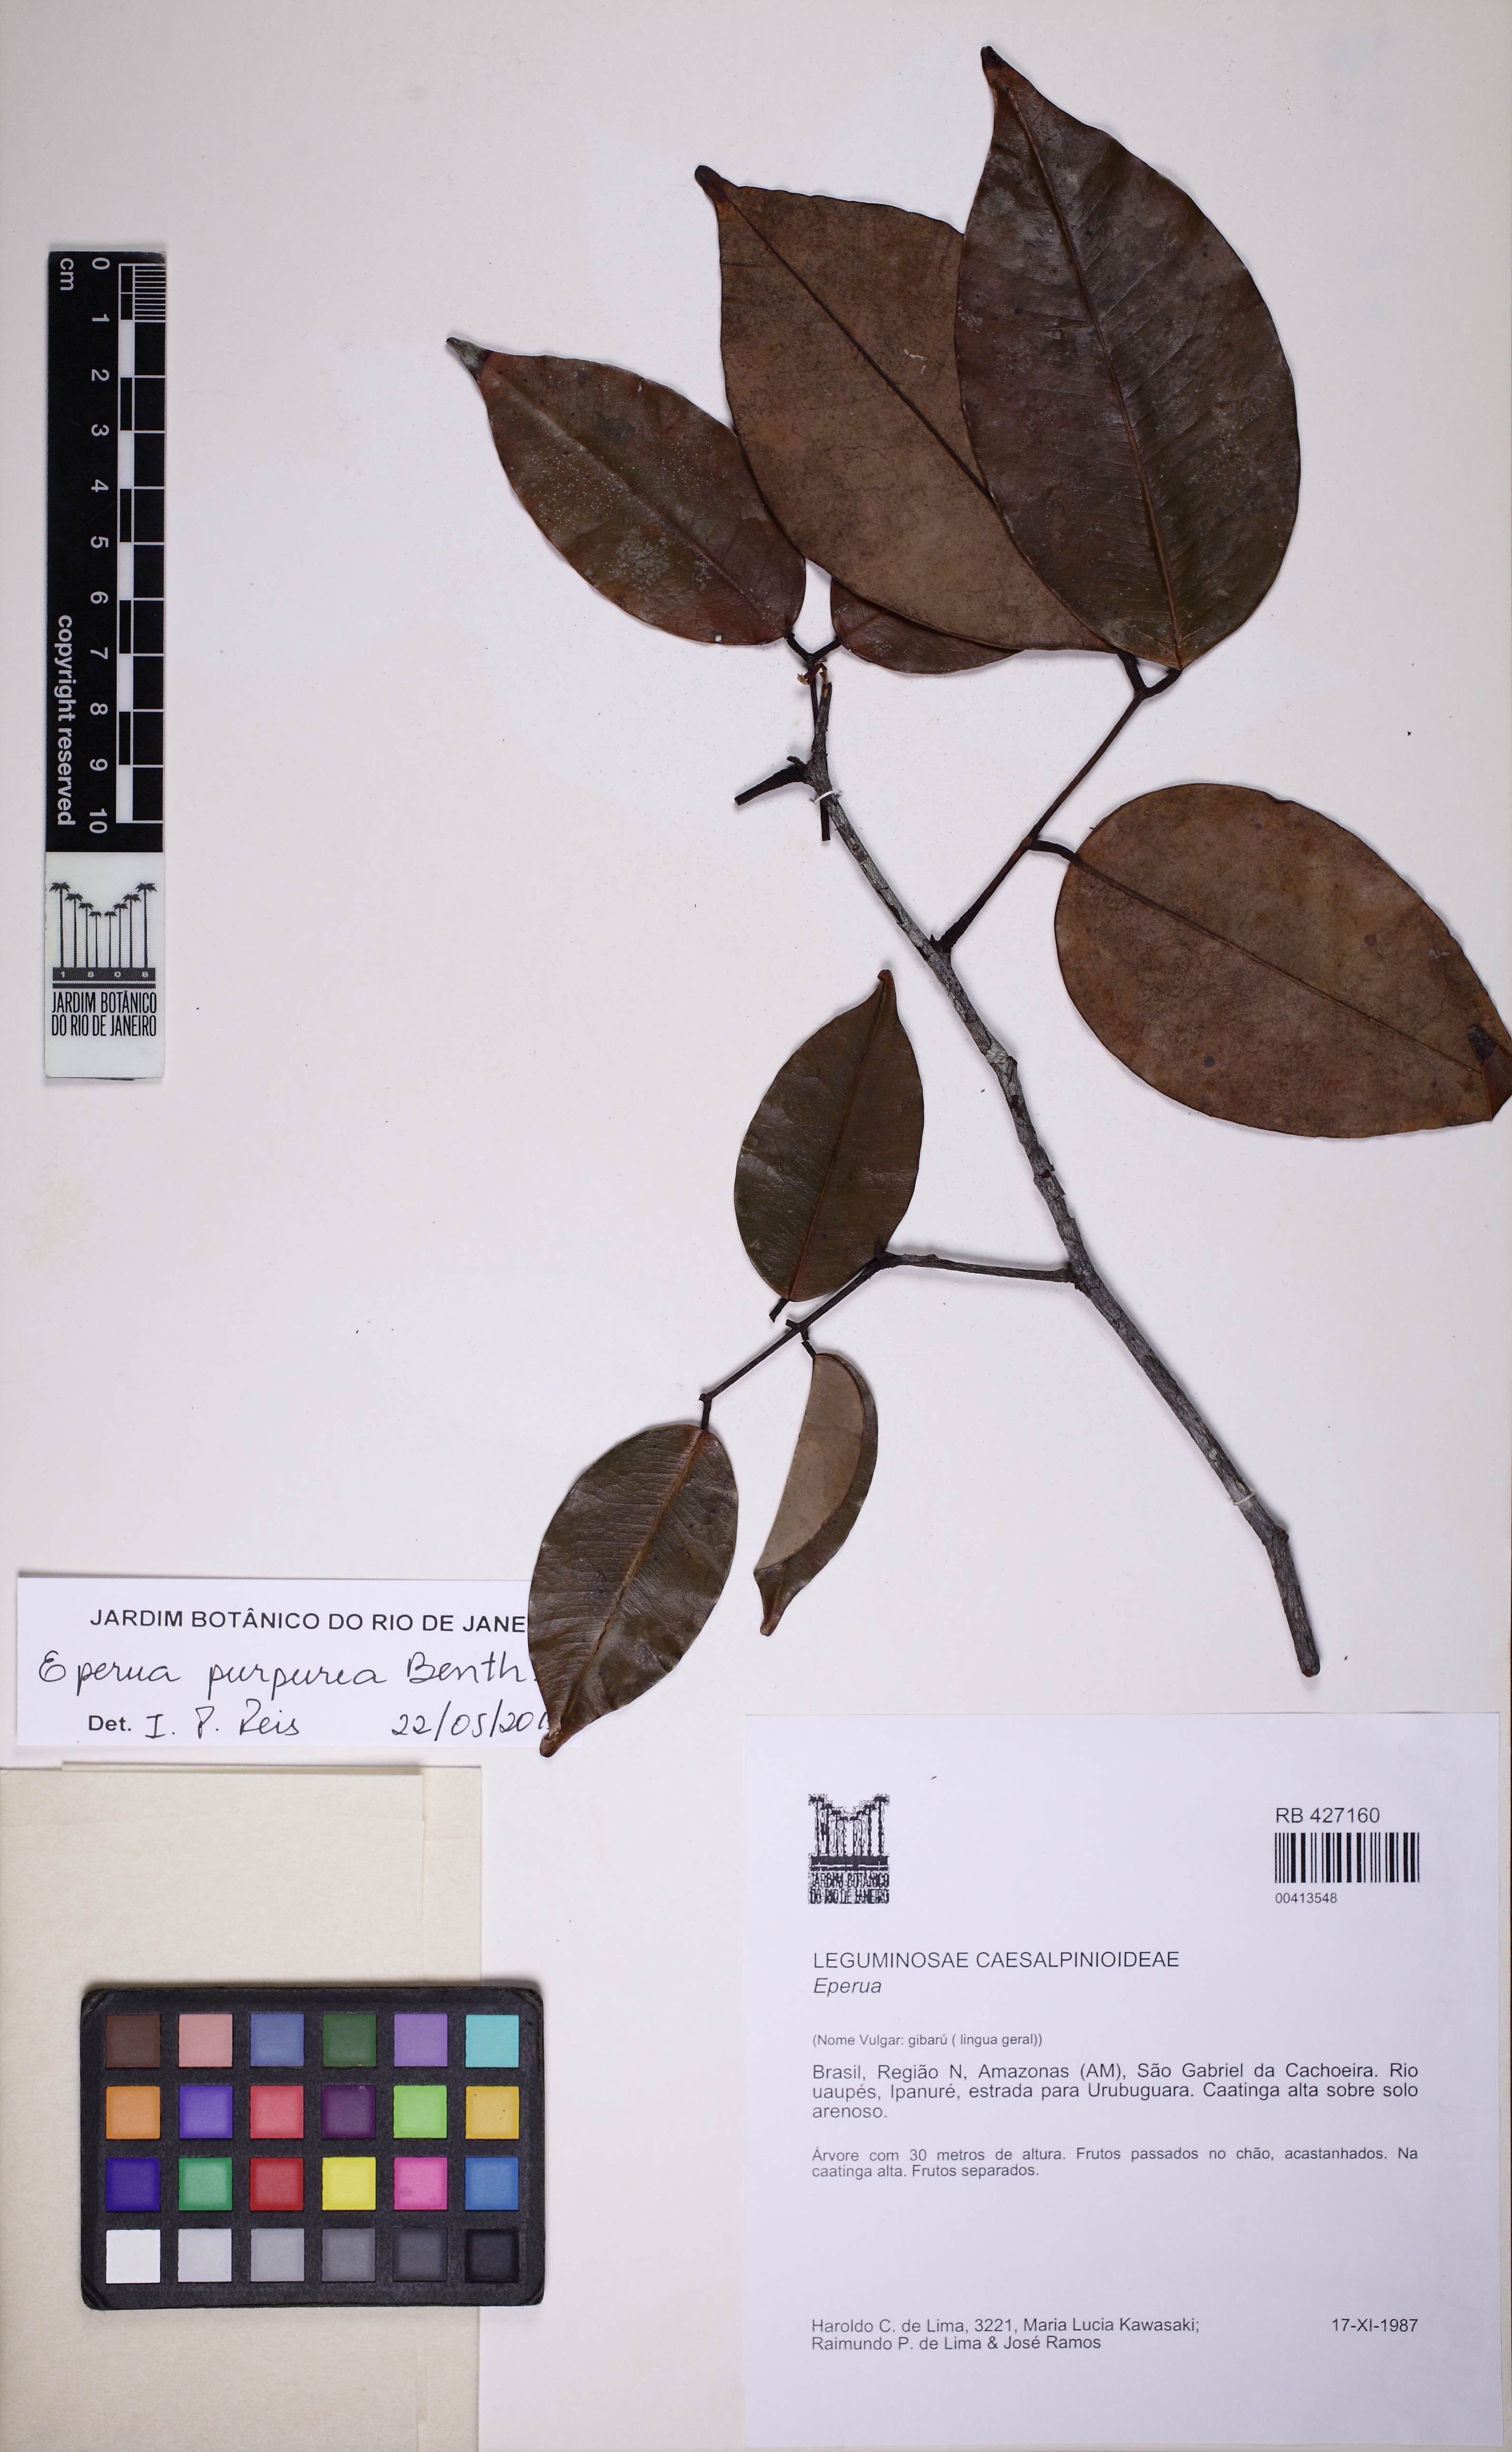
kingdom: Plantae
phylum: Tracheophyta
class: Magnoliopsida
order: Fabales
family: Fabaceae
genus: Eperua
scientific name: Eperua purpurea
